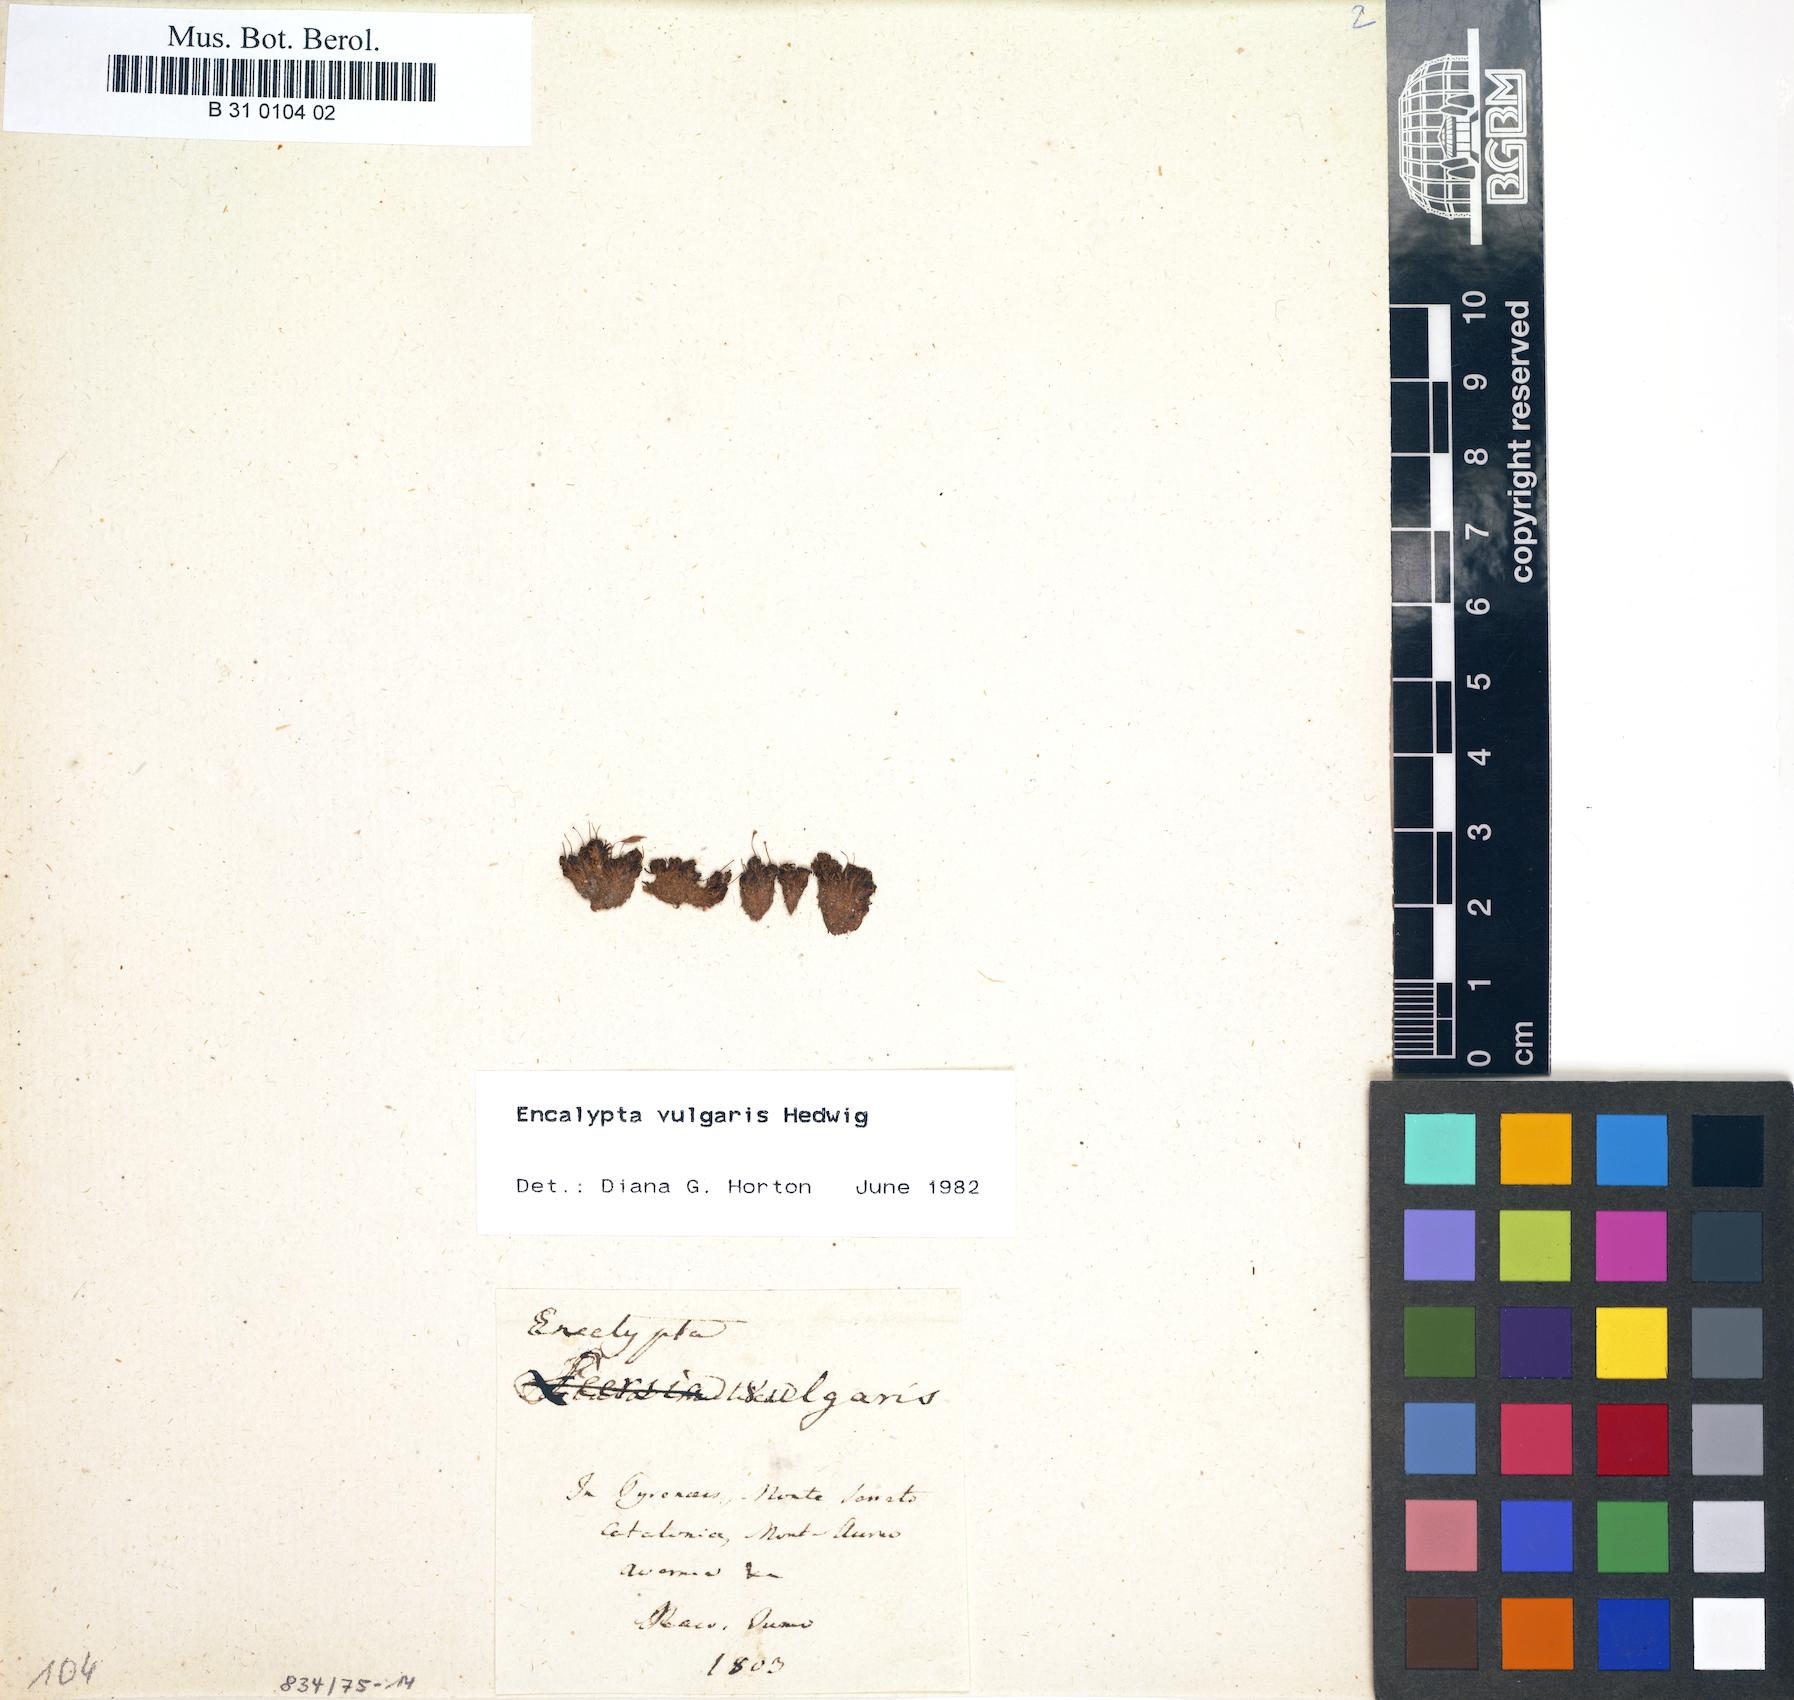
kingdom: Plantae
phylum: Bryophyta
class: Bryopsida
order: Encalyptales
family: Encalyptaceae
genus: Encalypta
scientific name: Encalypta vulgaris
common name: Common extinguisher-moss
